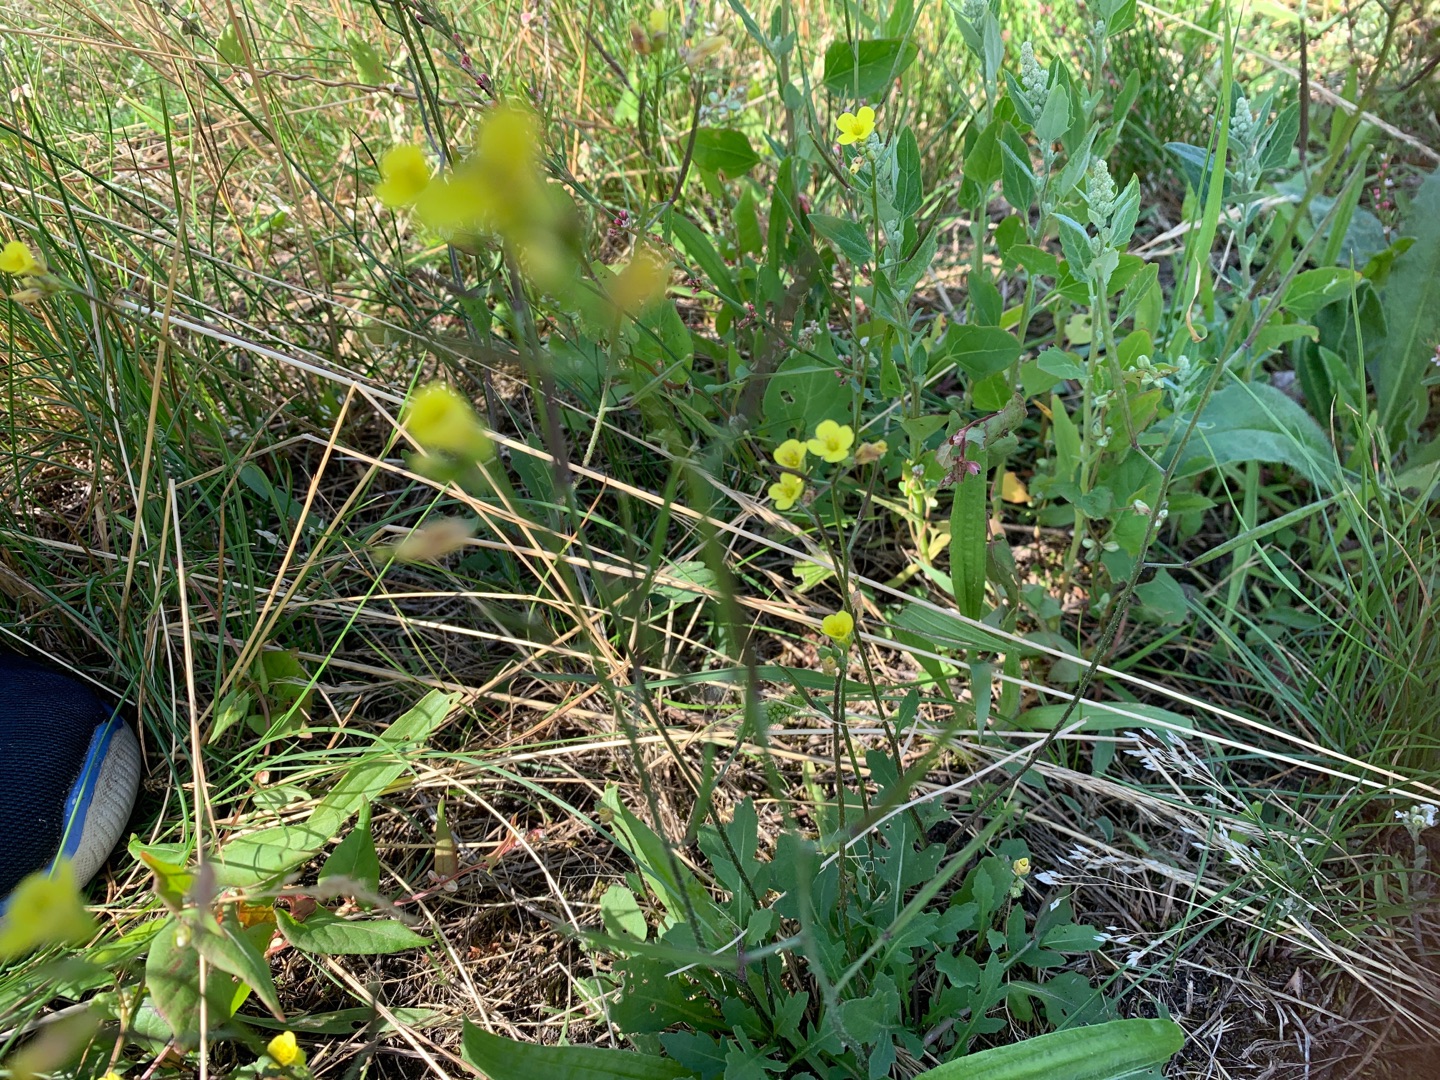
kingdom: Plantae
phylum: Tracheophyta
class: Magnoliopsida
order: Brassicales
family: Brassicaceae
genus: Diplotaxis
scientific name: Diplotaxis tenuifolia
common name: Sandsennep
